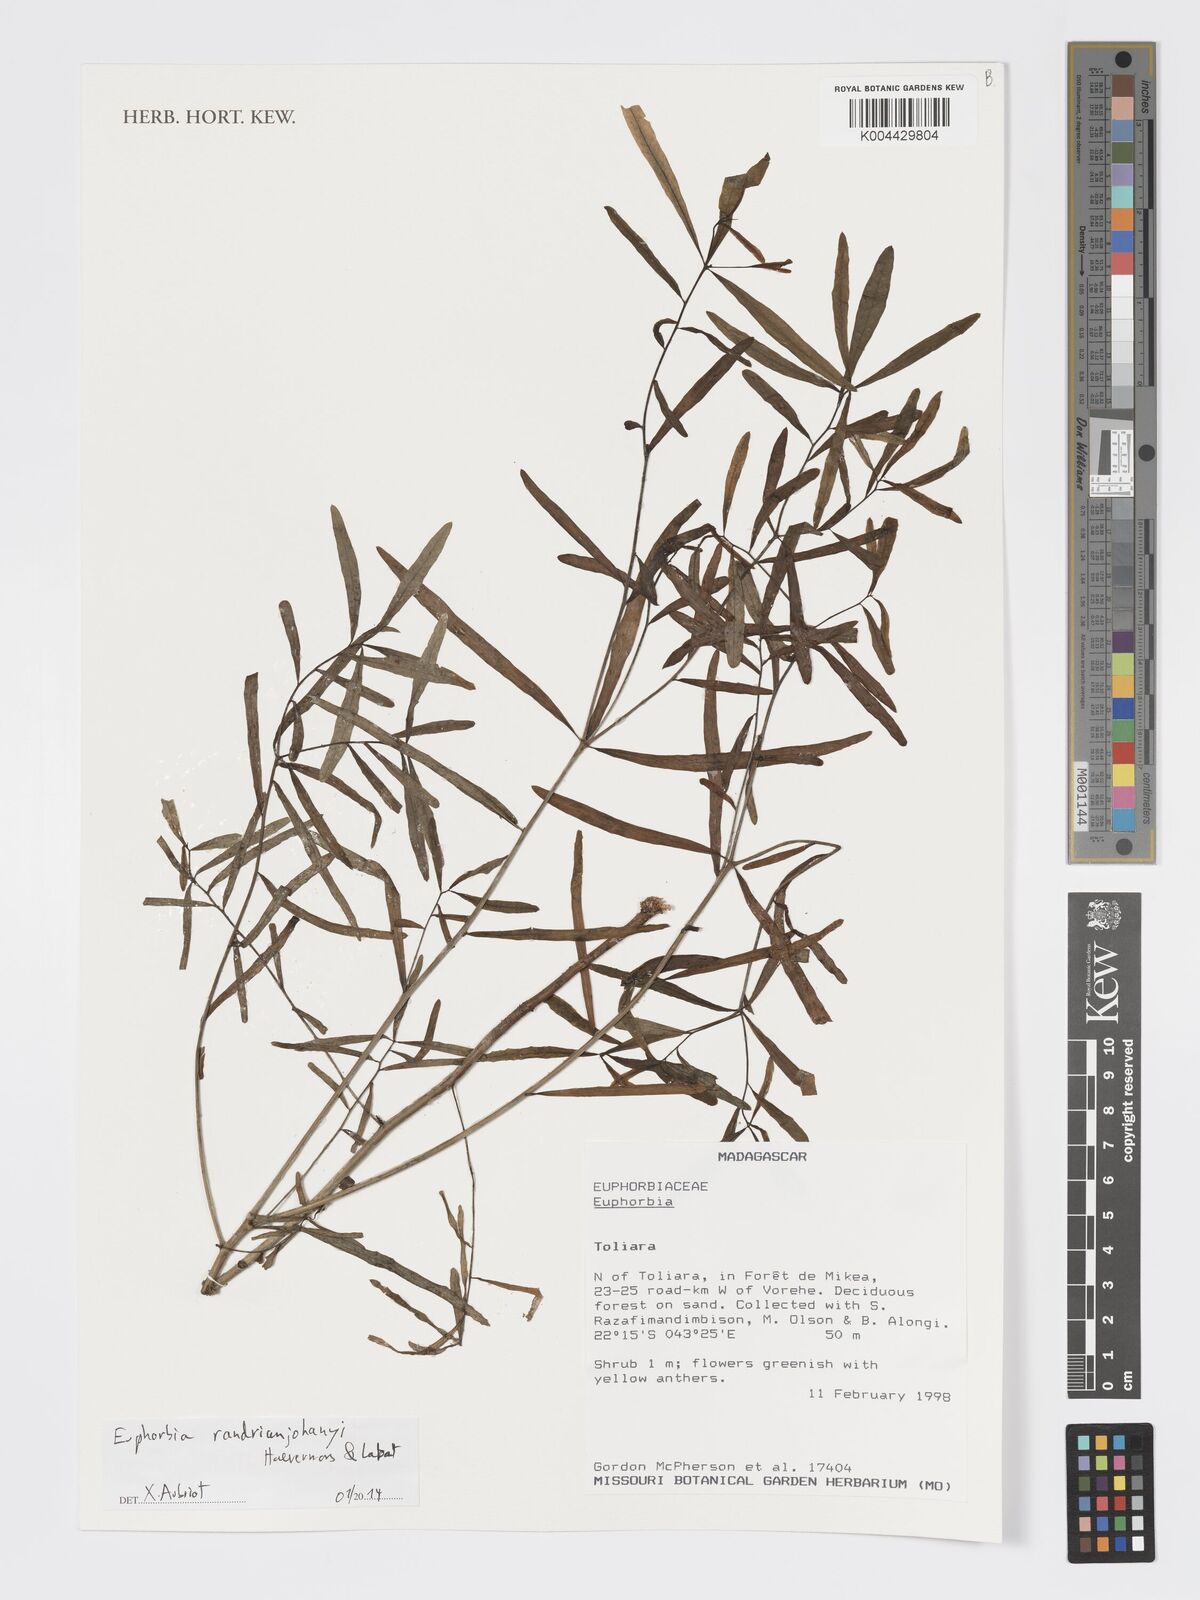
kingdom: Plantae
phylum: Tracheophyta
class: Magnoliopsida
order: Malpighiales
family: Euphorbiaceae
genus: Euphorbia
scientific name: Euphorbia randrianijohanyi
